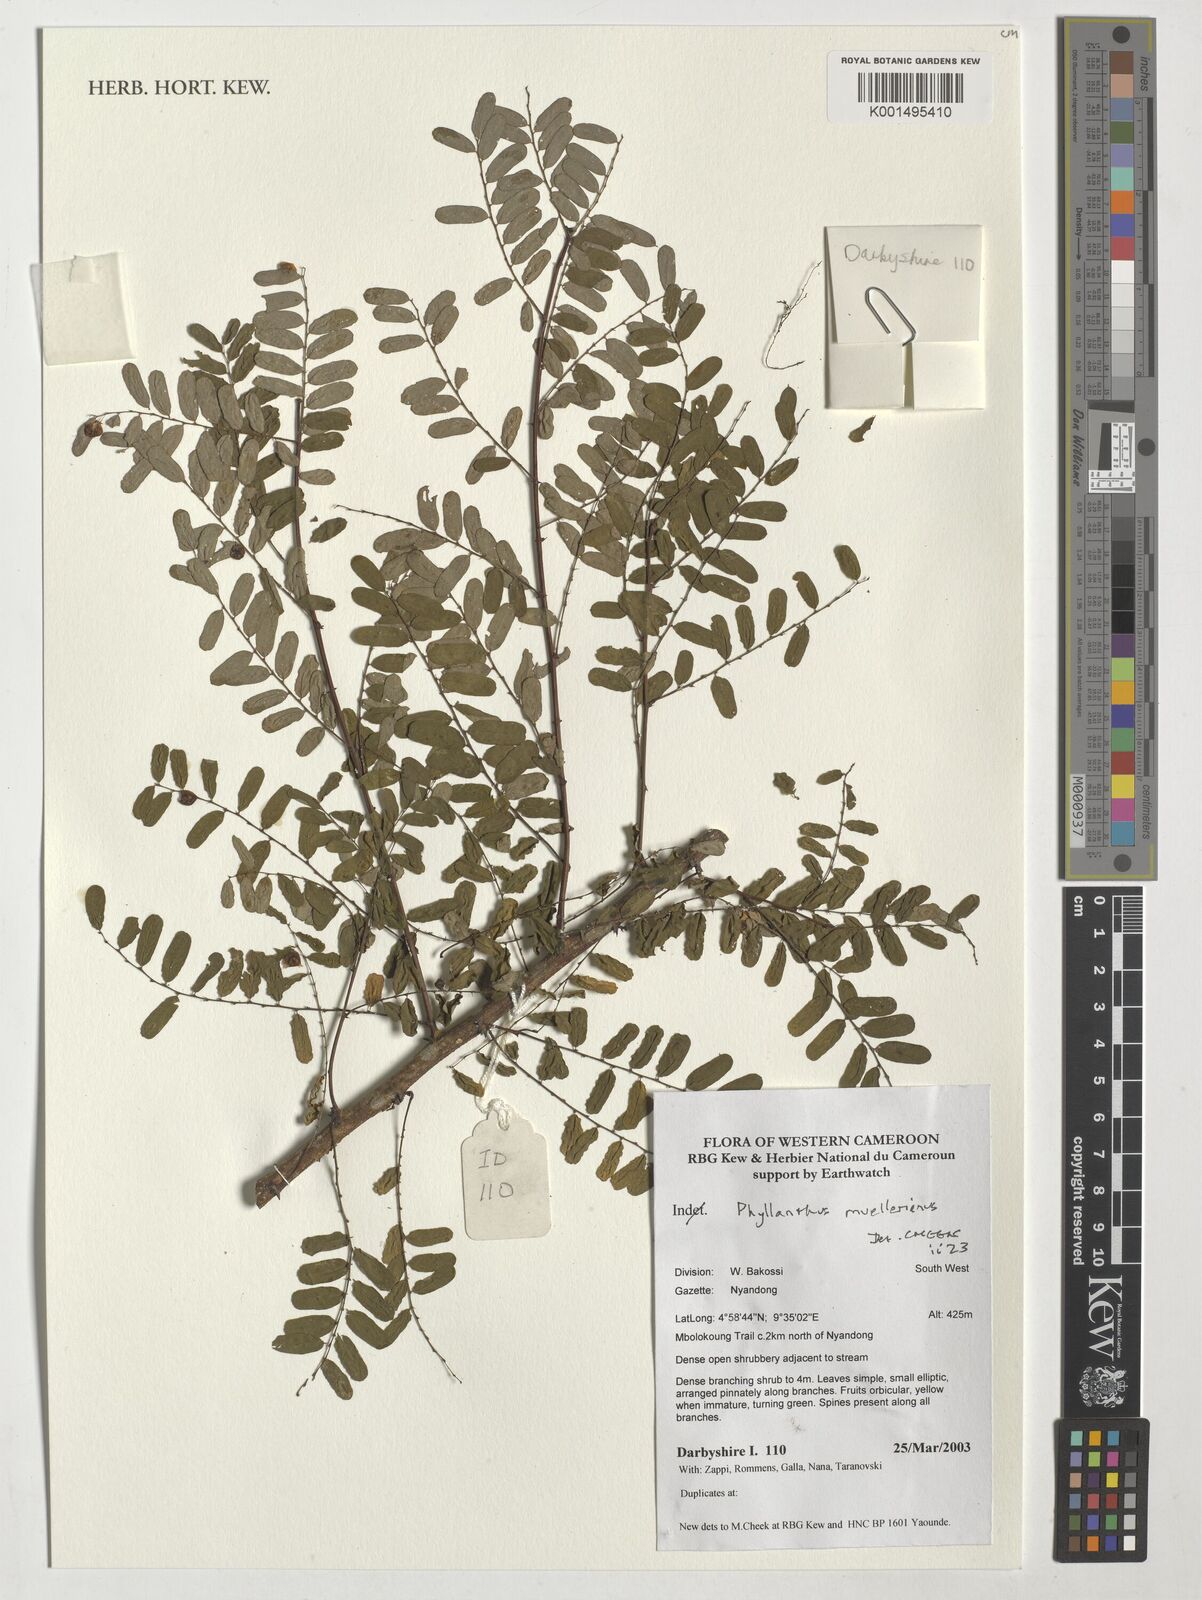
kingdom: Plantae
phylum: Tracheophyta
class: Magnoliopsida
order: Malpighiales
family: Phyllanthaceae
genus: Phyllanthus
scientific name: Phyllanthus muellerianus
